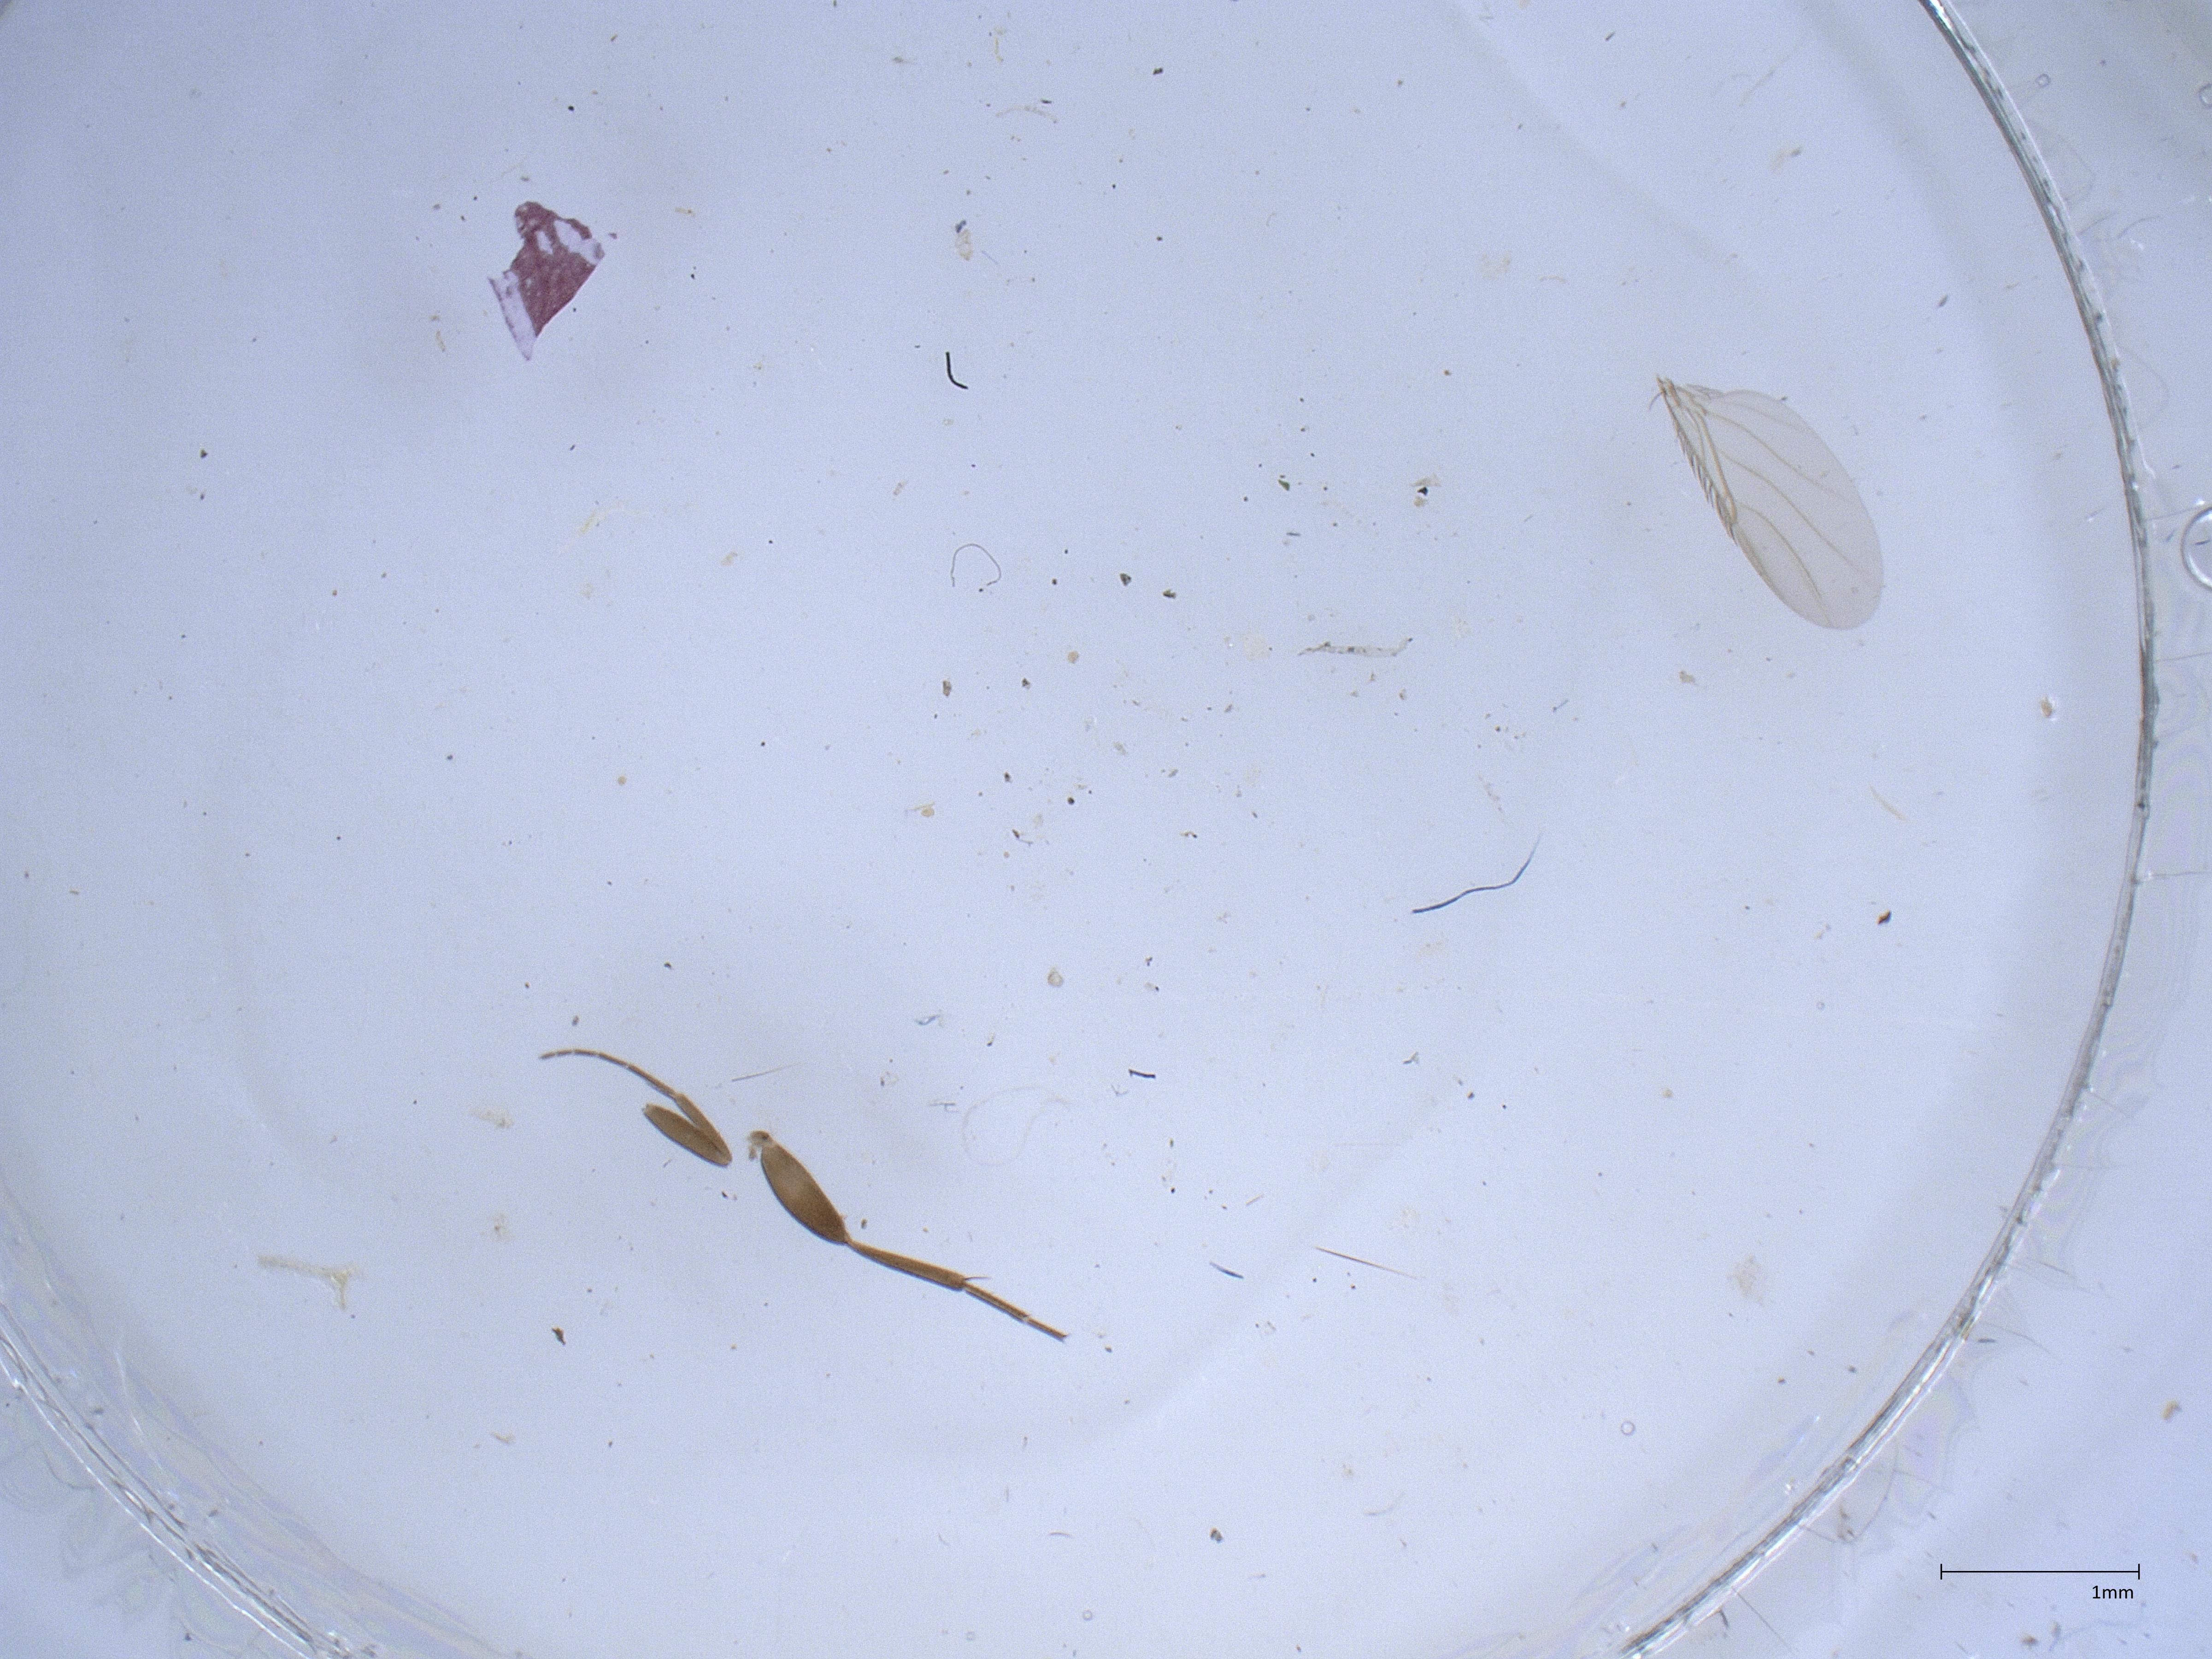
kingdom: Animalia
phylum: Arthropoda
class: Insecta
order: Diptera
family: Phoridae
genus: Megaselia
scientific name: Megaselia longicostalis
